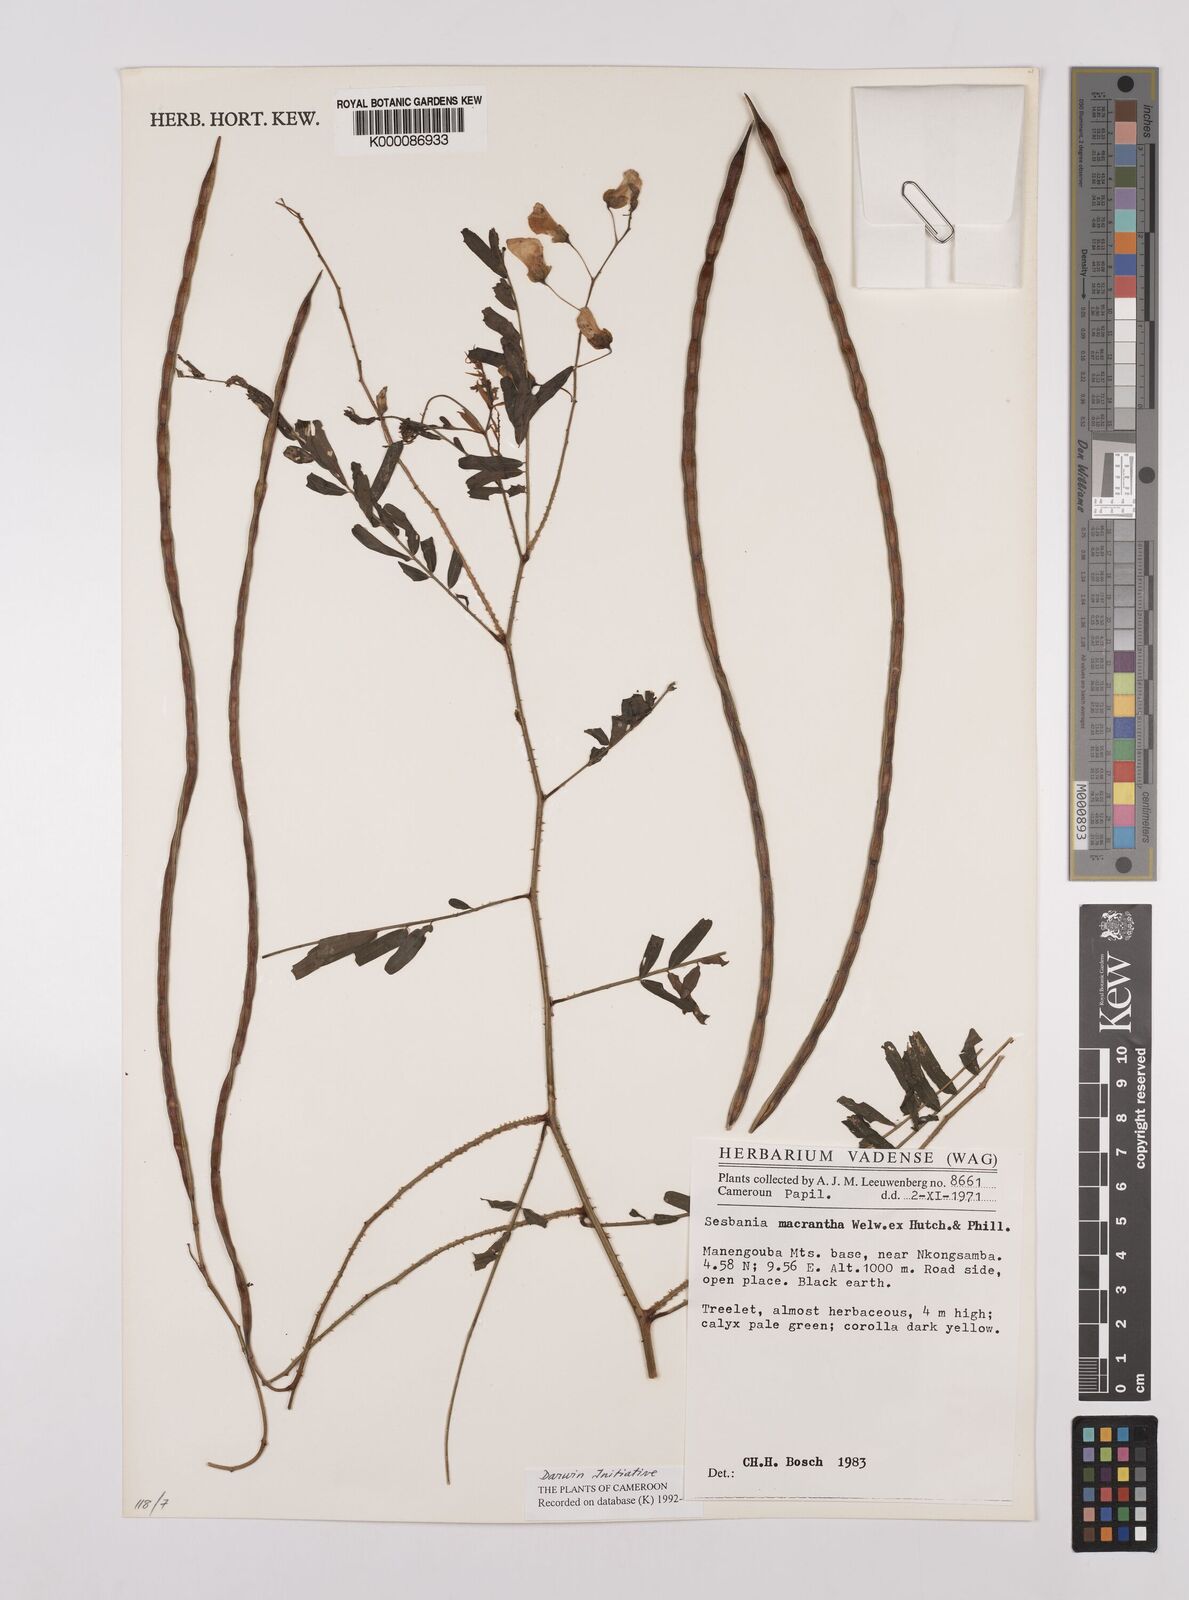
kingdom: Plantae
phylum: Tracheophyta
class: Magnoliopsida
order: Fabales
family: Fabaceae
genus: Sesbania
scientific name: Sesbania macrantha
